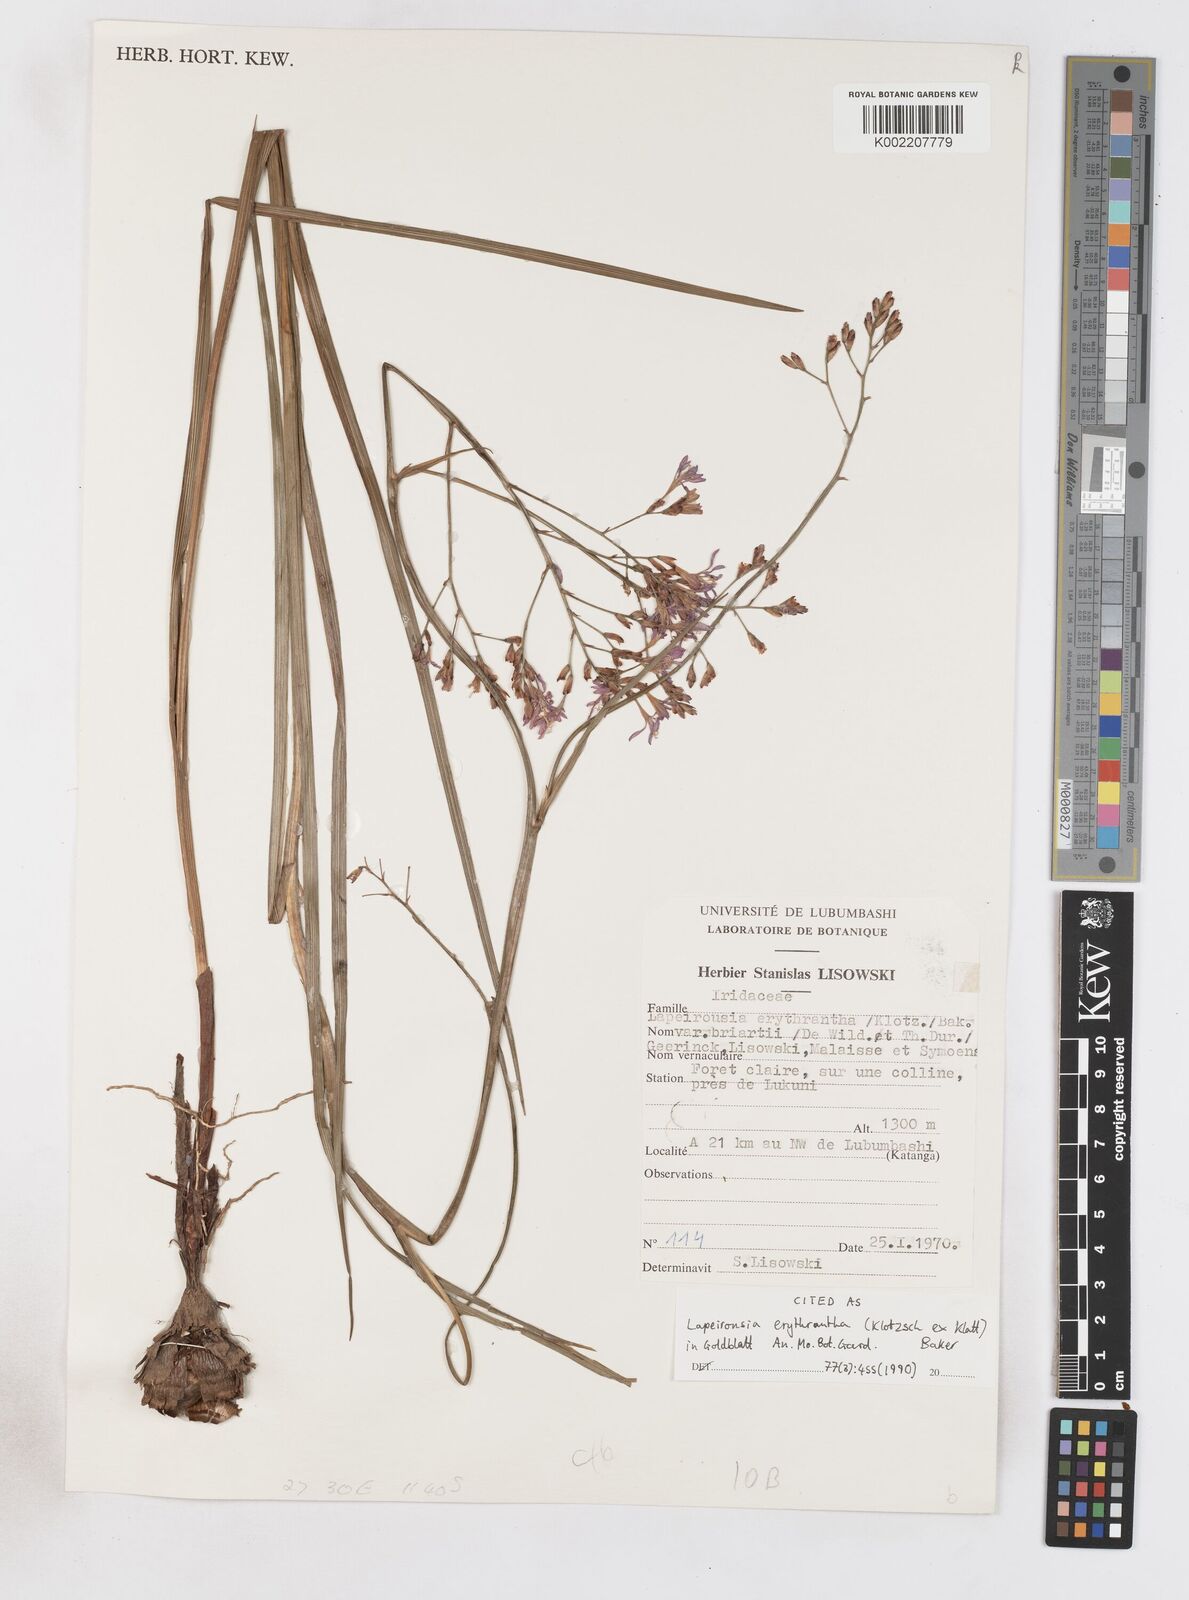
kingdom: Plantae
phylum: Tracheophyta
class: Liliopsida
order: Asparagales
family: Iridaceae
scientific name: Iridaceae
